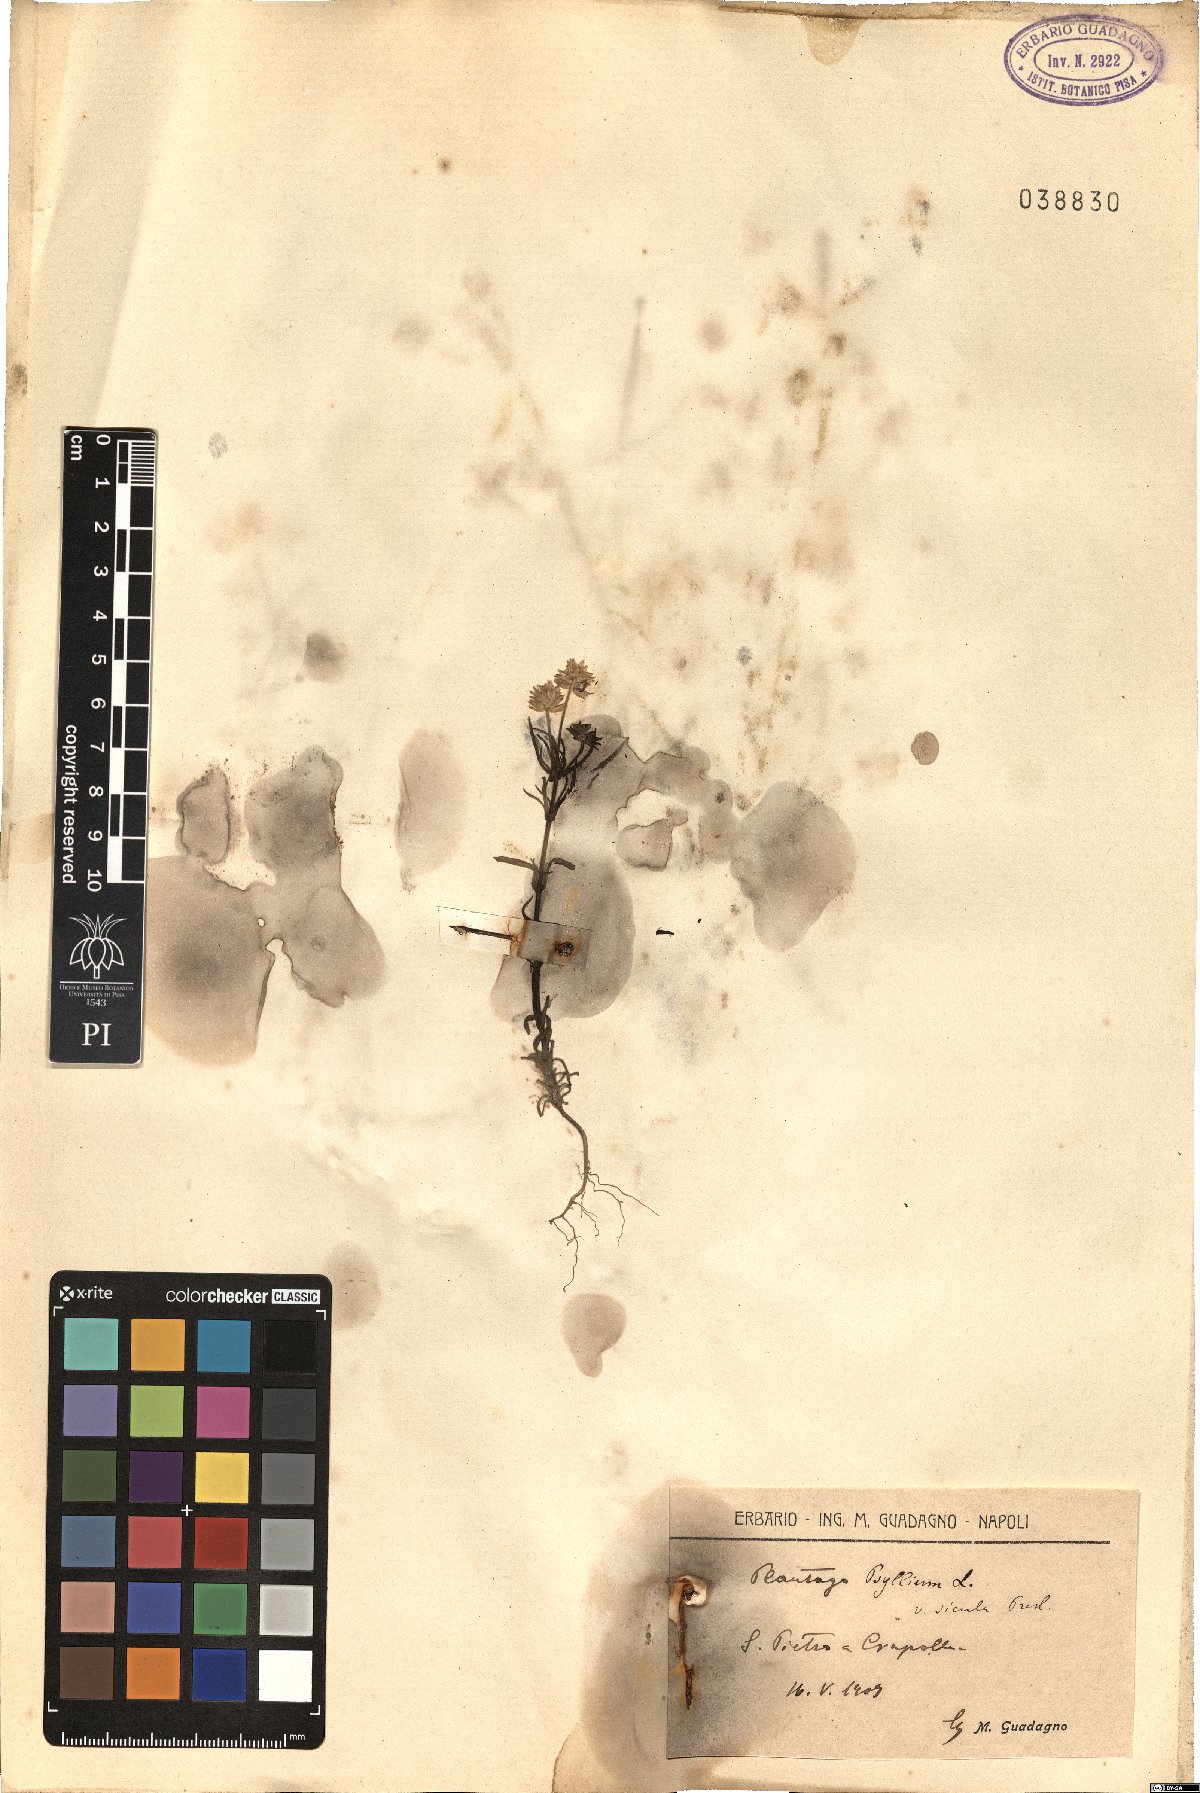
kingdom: Plantae
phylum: Tracheophyta
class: Magnoliopsida
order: Lamiales
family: Plantaginaceae
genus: Plantago
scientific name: Plantago afra
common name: Glandular plantain
